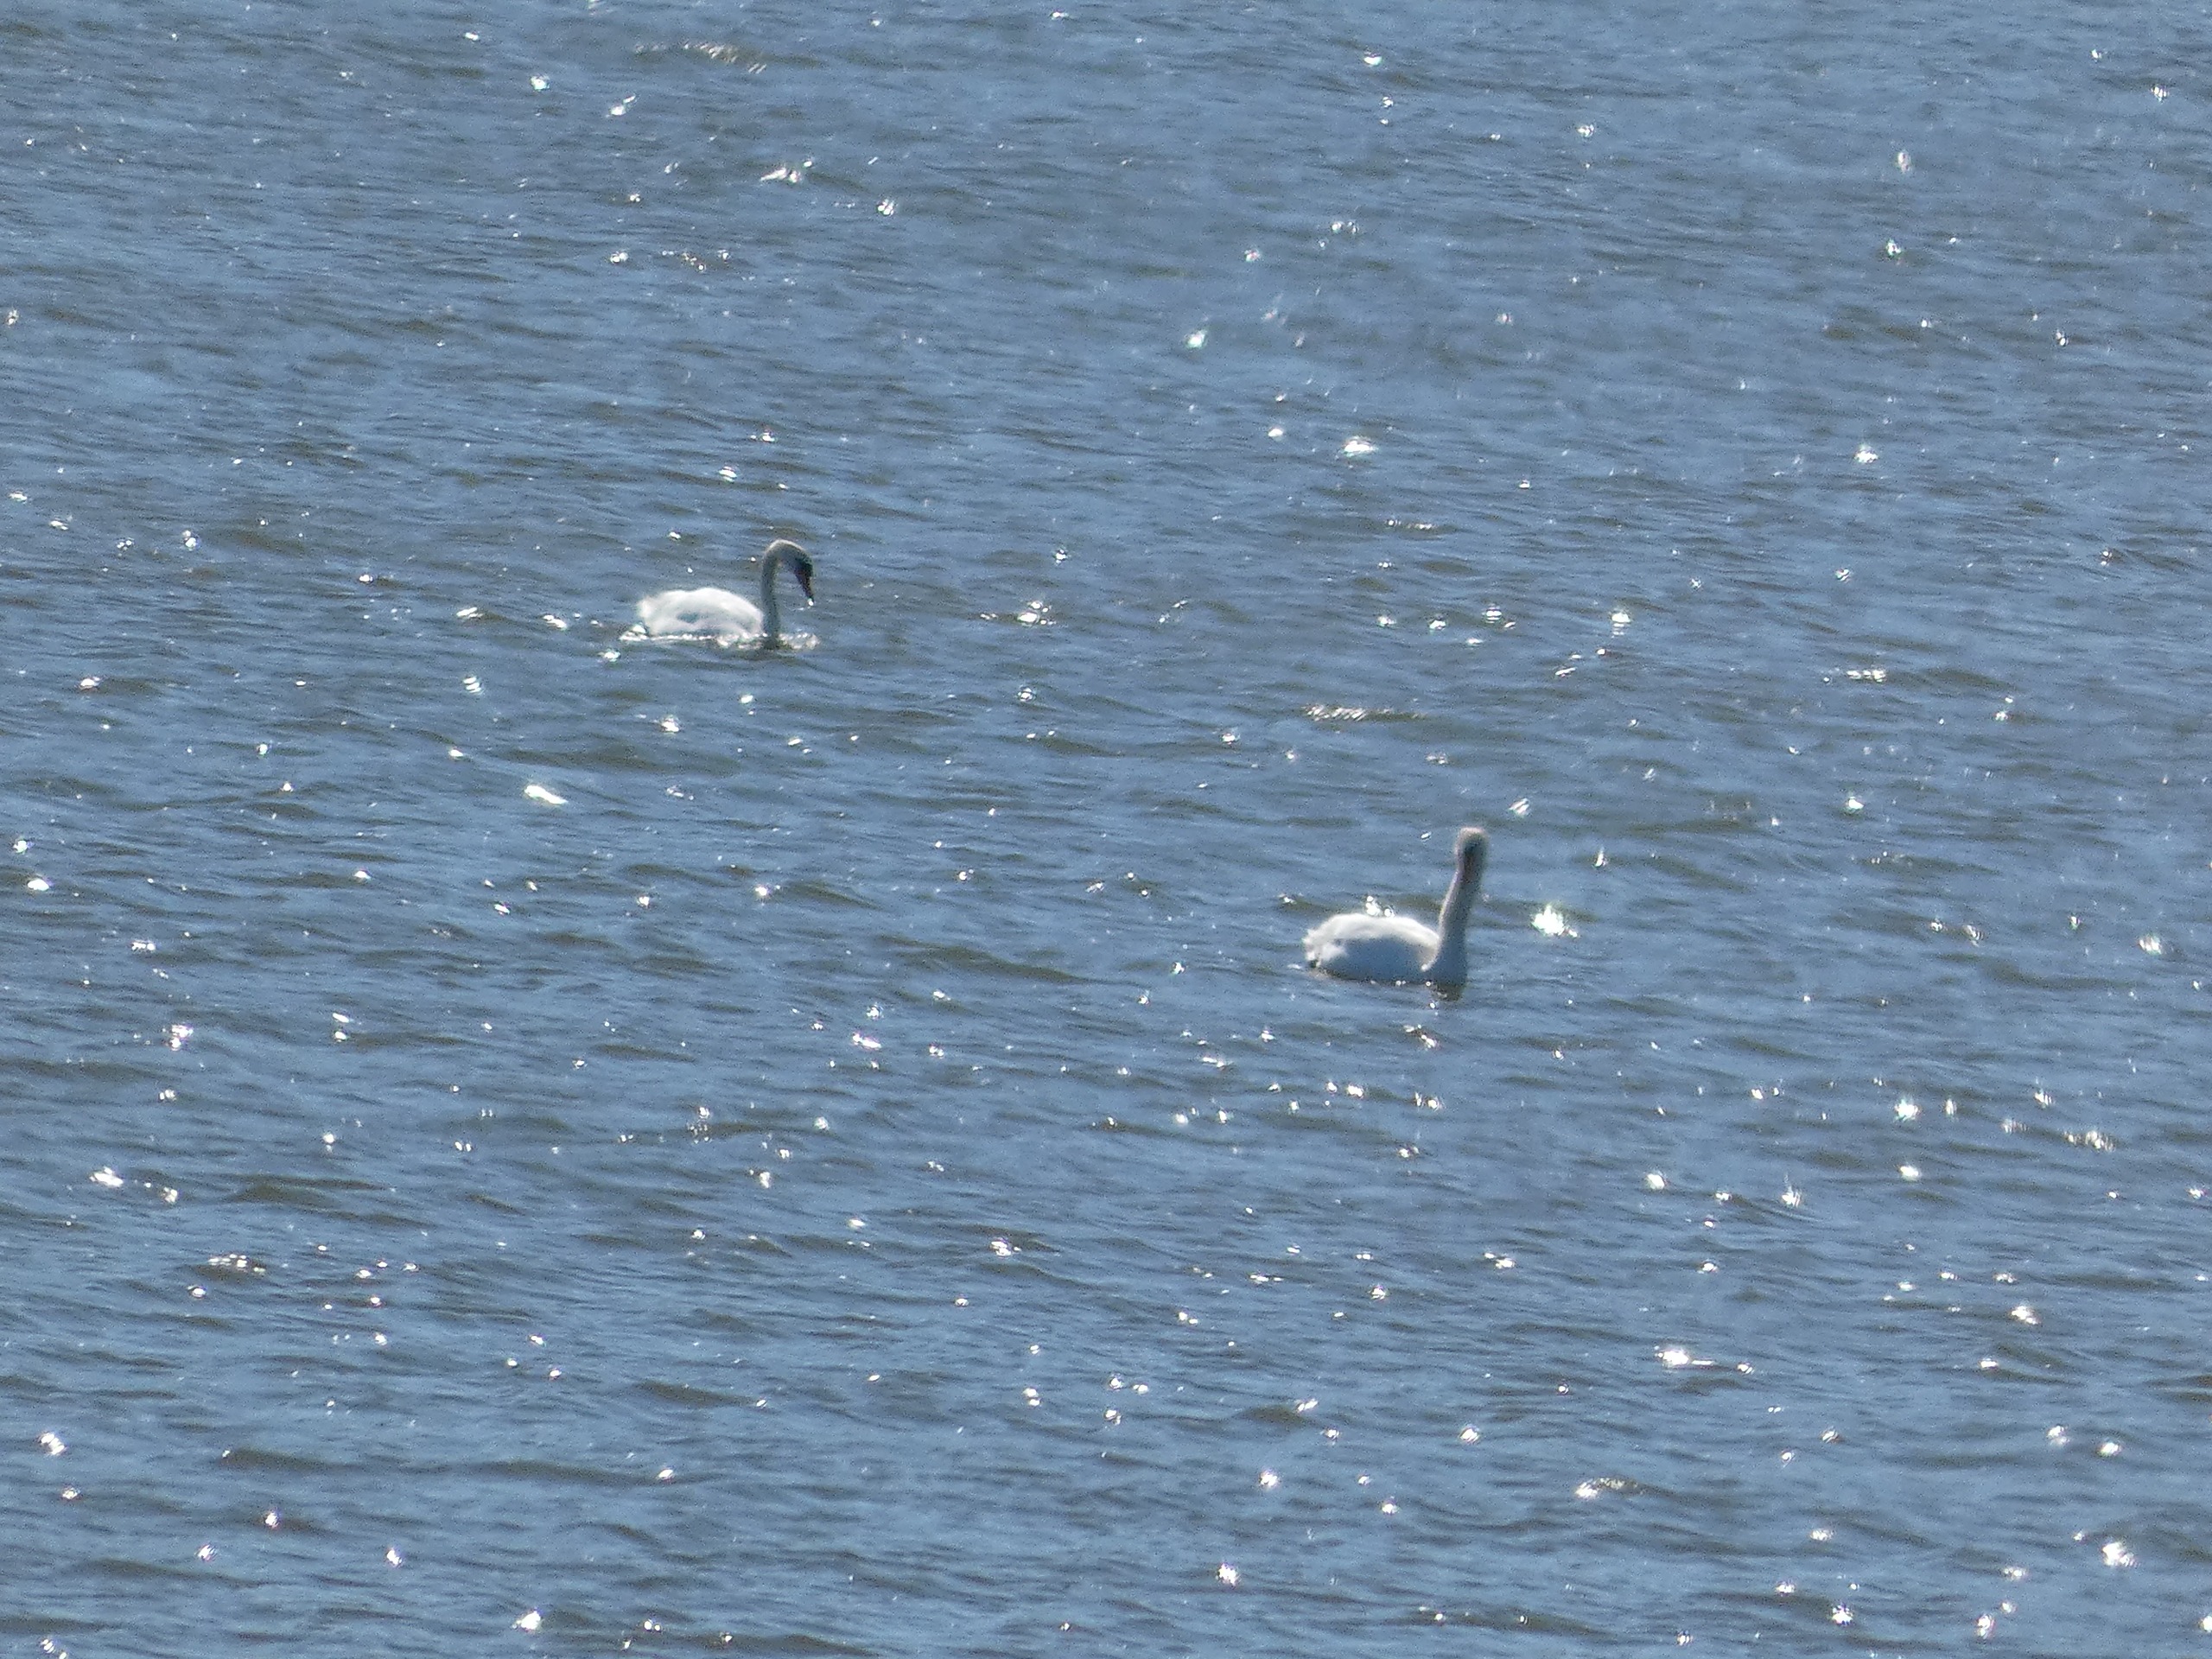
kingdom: Animalia
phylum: Chordata
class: Aves
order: Anseriformes
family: Anatidae
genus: Cygnus
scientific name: Cygnus olor
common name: Knopsvane
